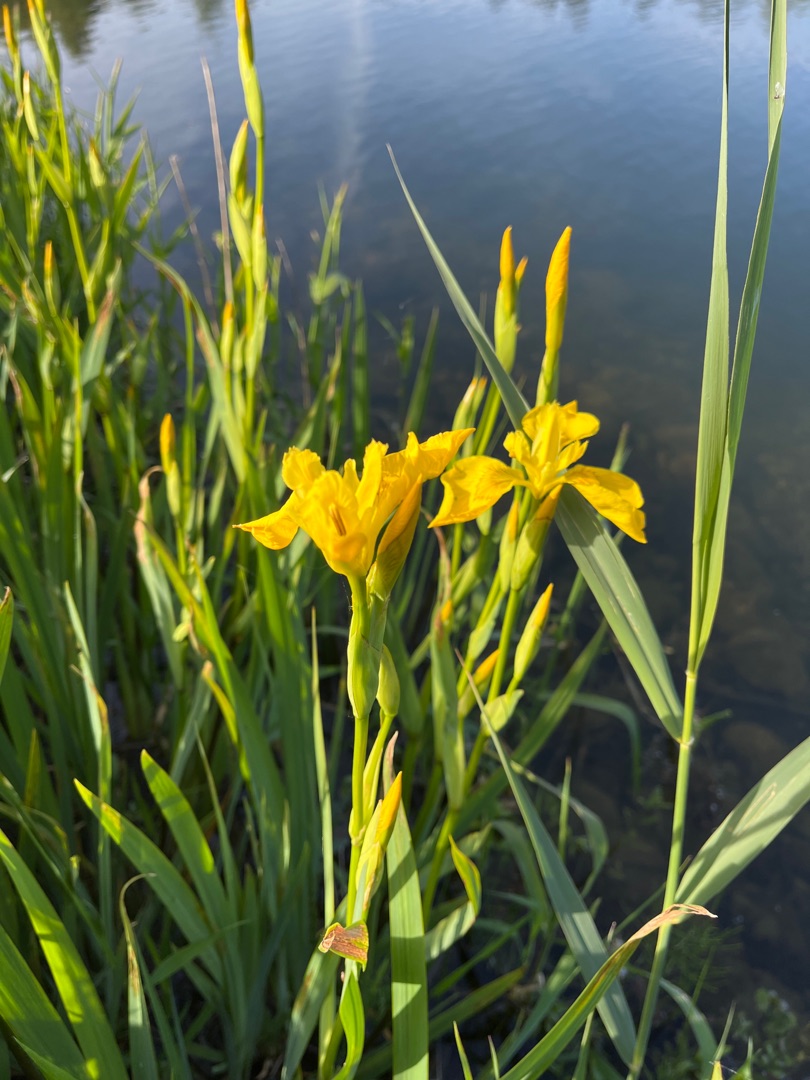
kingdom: Plantae
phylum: Tracheophyta
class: Liliopsida
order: Asparagales
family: Iridaceae
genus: Iris
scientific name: Iris pseudacorus
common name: Gul iris
